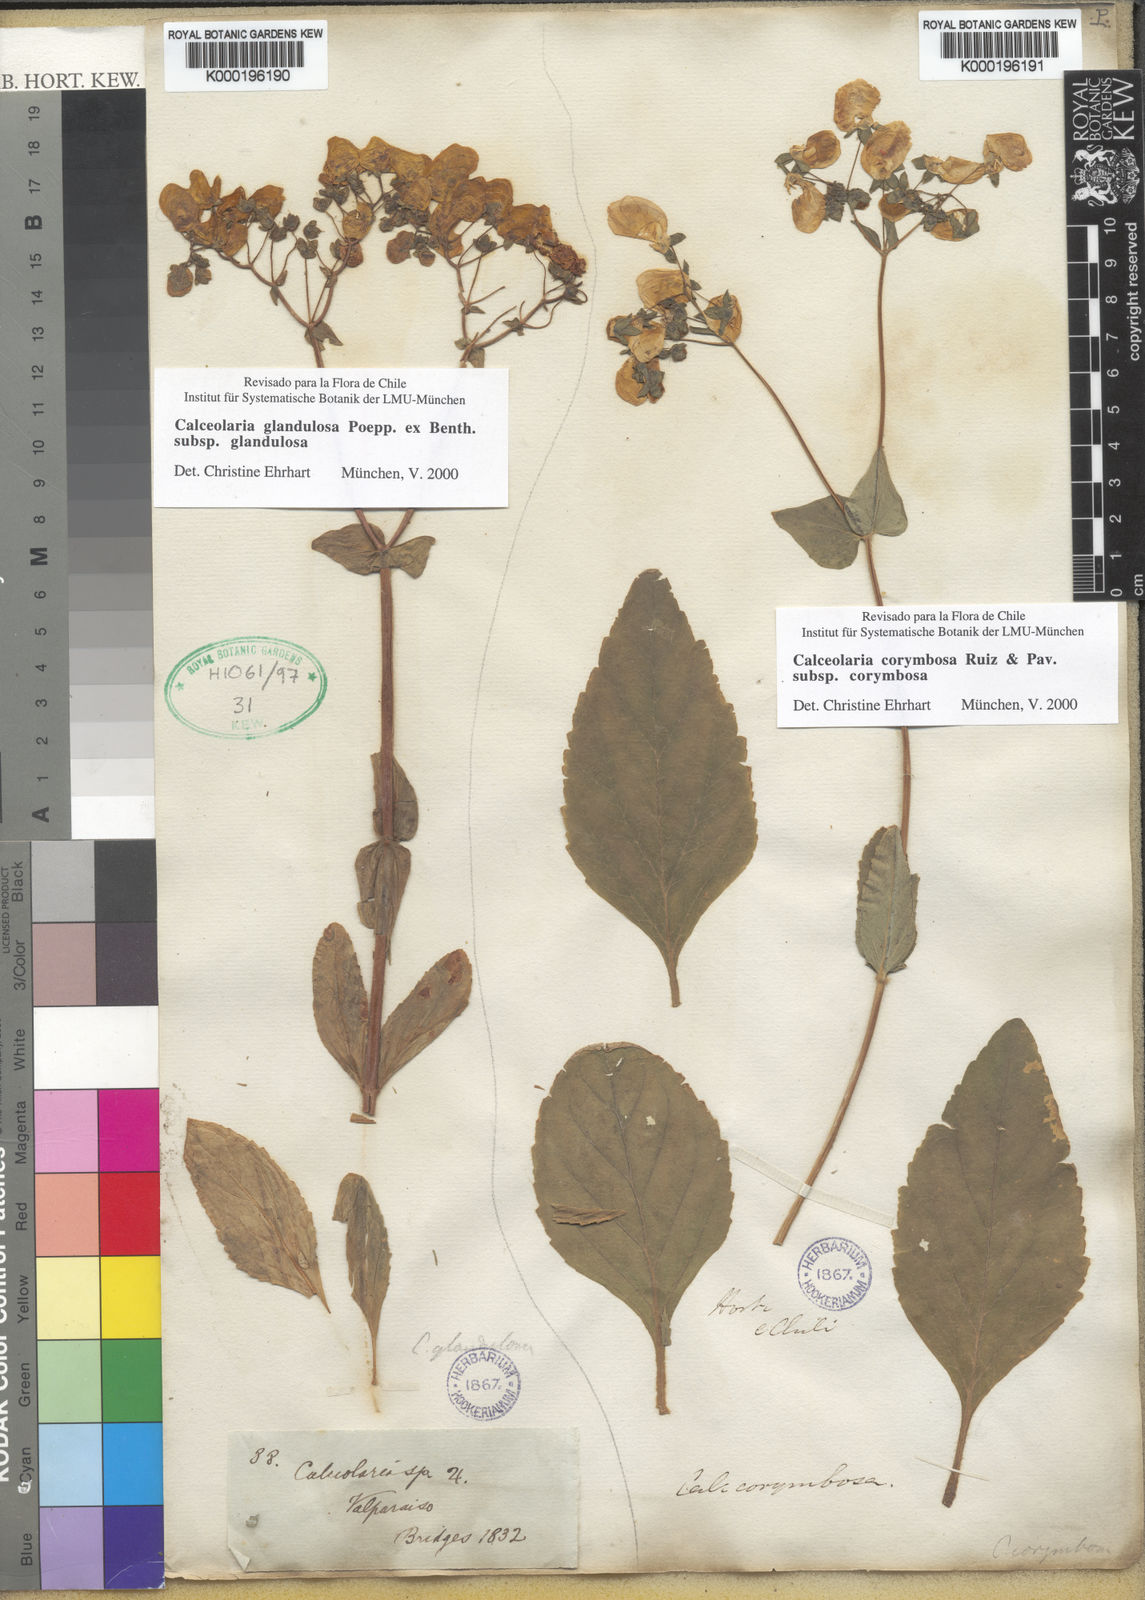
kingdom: Plantae
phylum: Tracheophyta
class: Magnoliopsida
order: Lamiales
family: Calceolariaceae
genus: Calceolaria
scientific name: Calceolaria glandulosa
